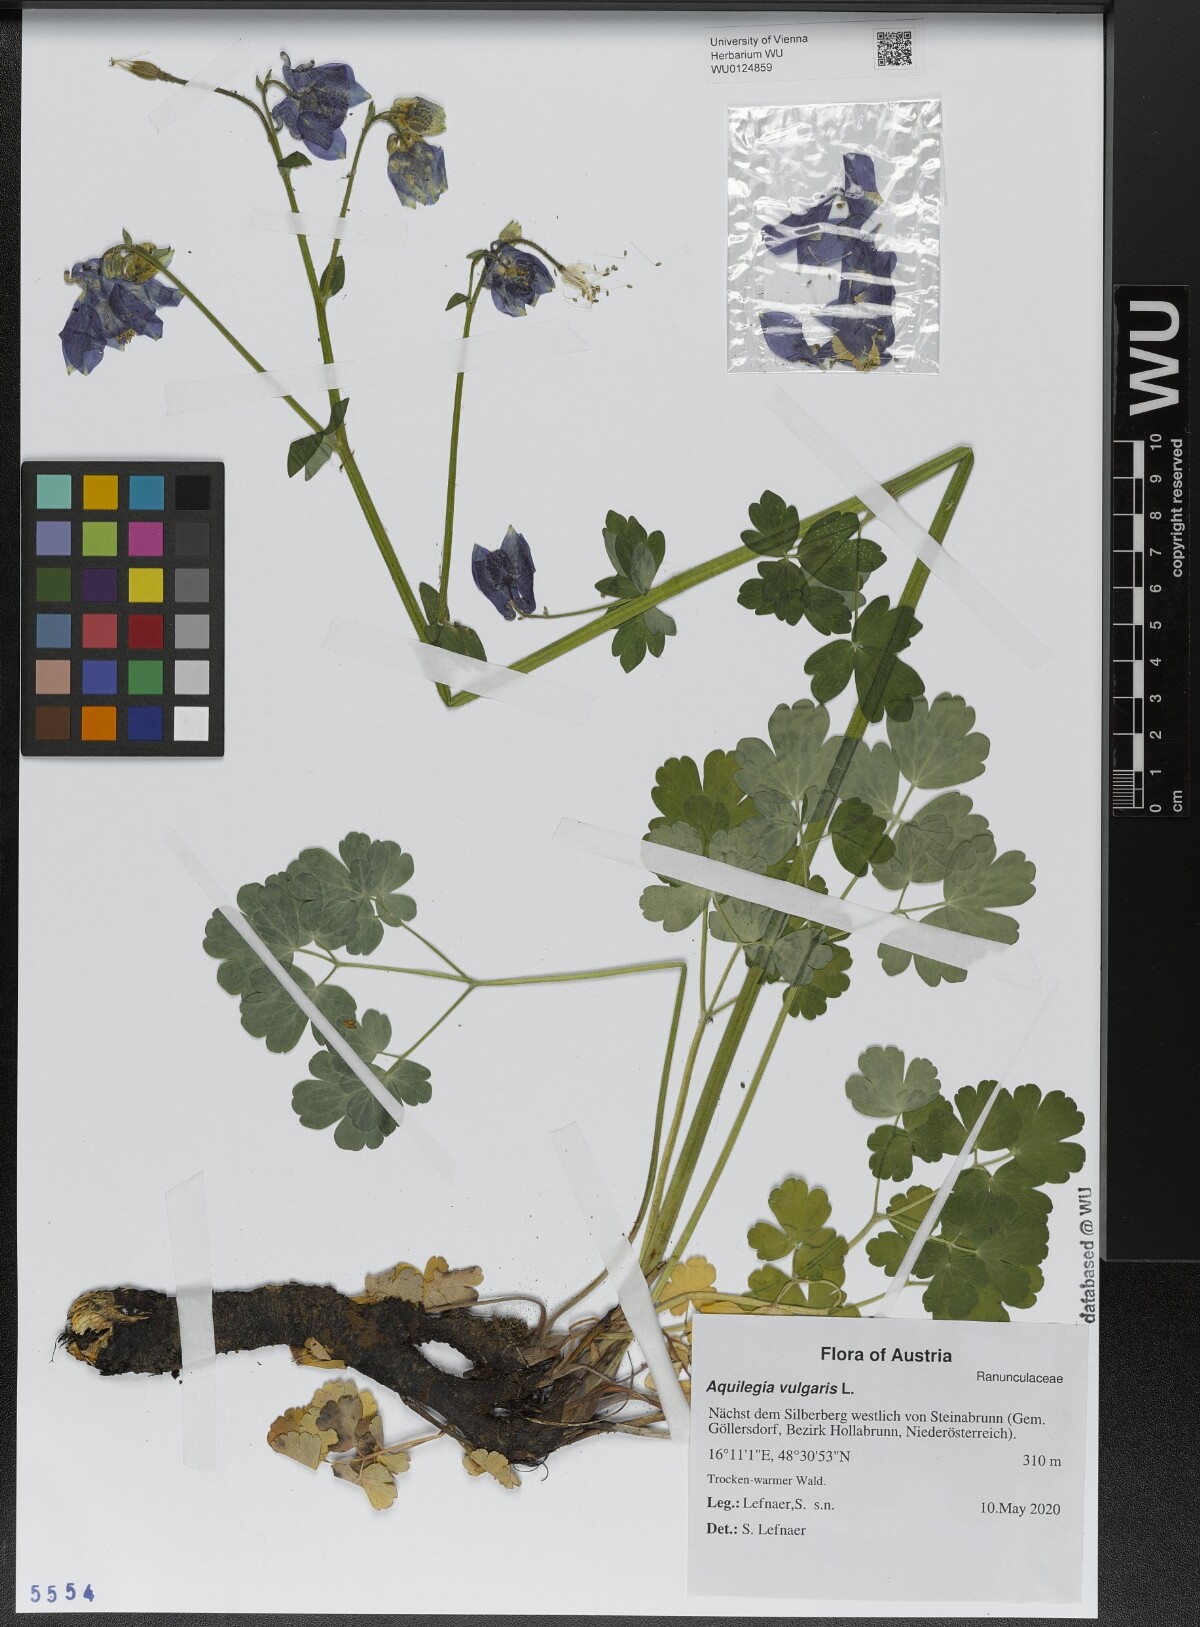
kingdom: Plantae
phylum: Tracheophyta
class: Magnoliopsida
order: Ranunculales
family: Ranunculaceae
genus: Aquilegia
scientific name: Aquilegia vulgaris
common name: Columbine
